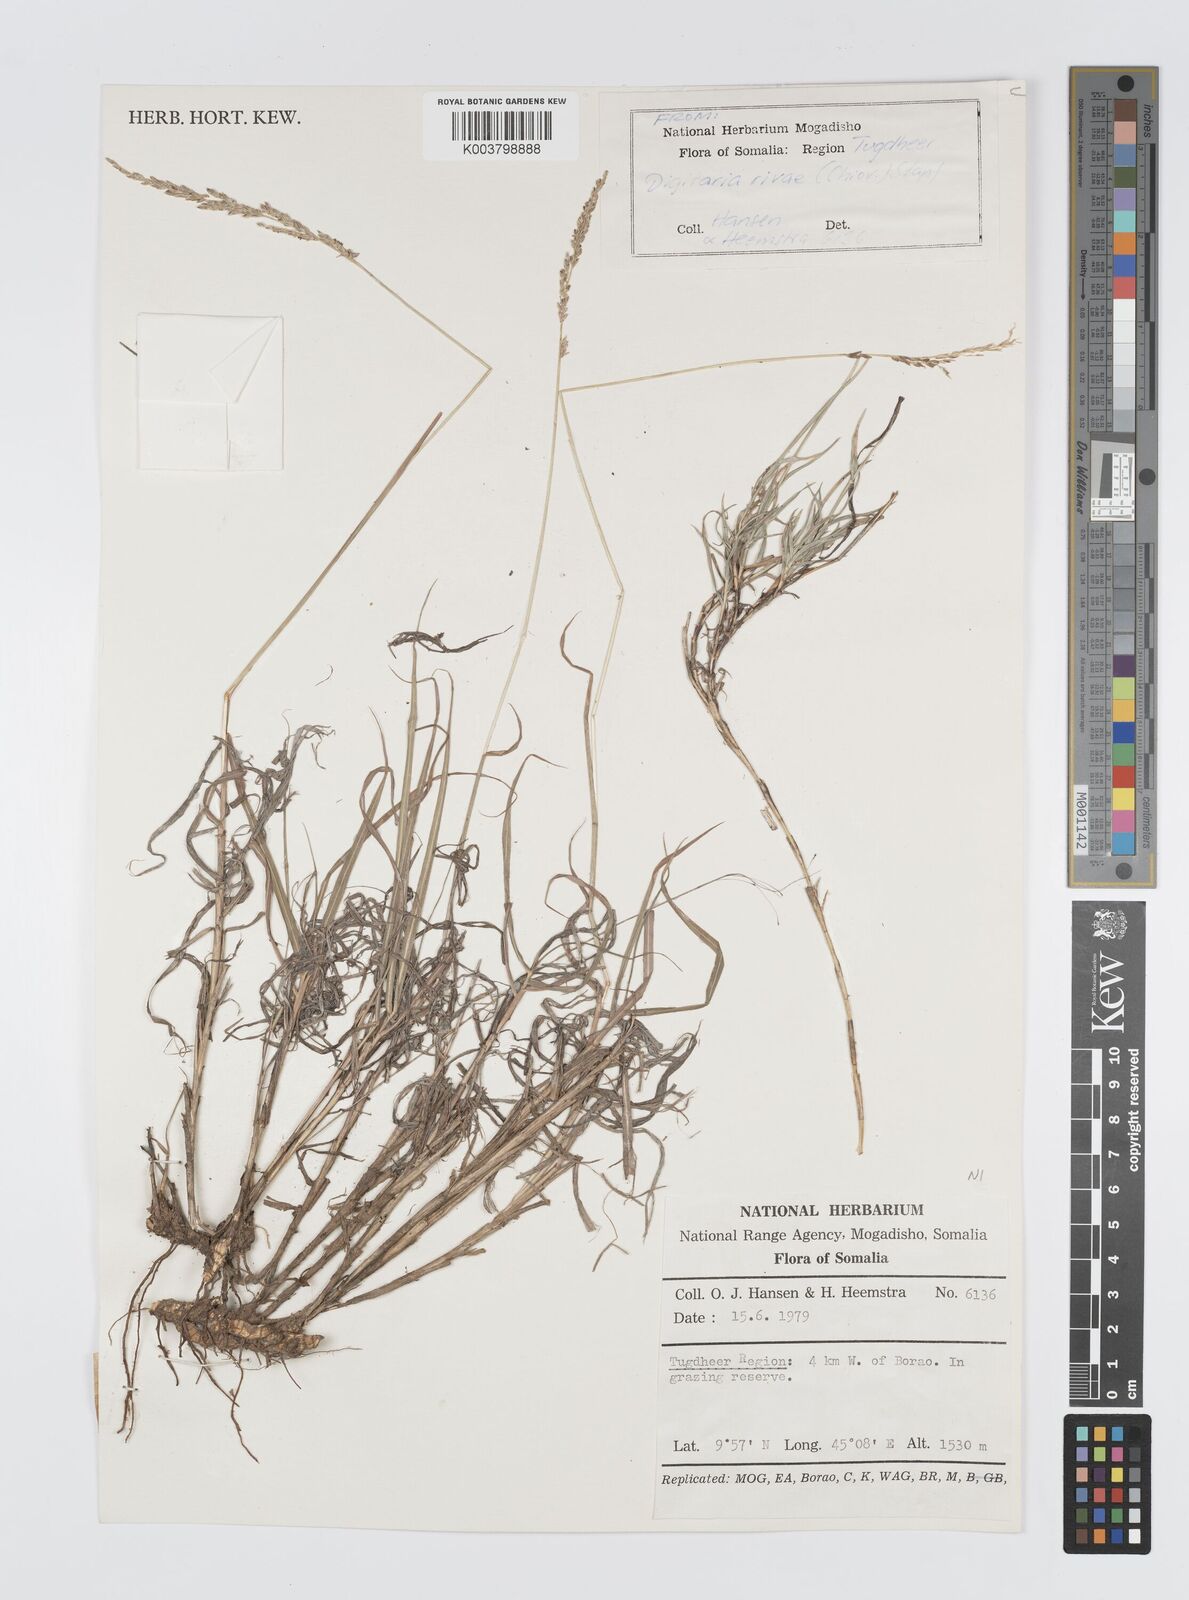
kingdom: Plantae
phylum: Tracheophyta
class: Liliopsida
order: Poales
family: Poaceae
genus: Digitaria
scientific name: Digitaria rivae
